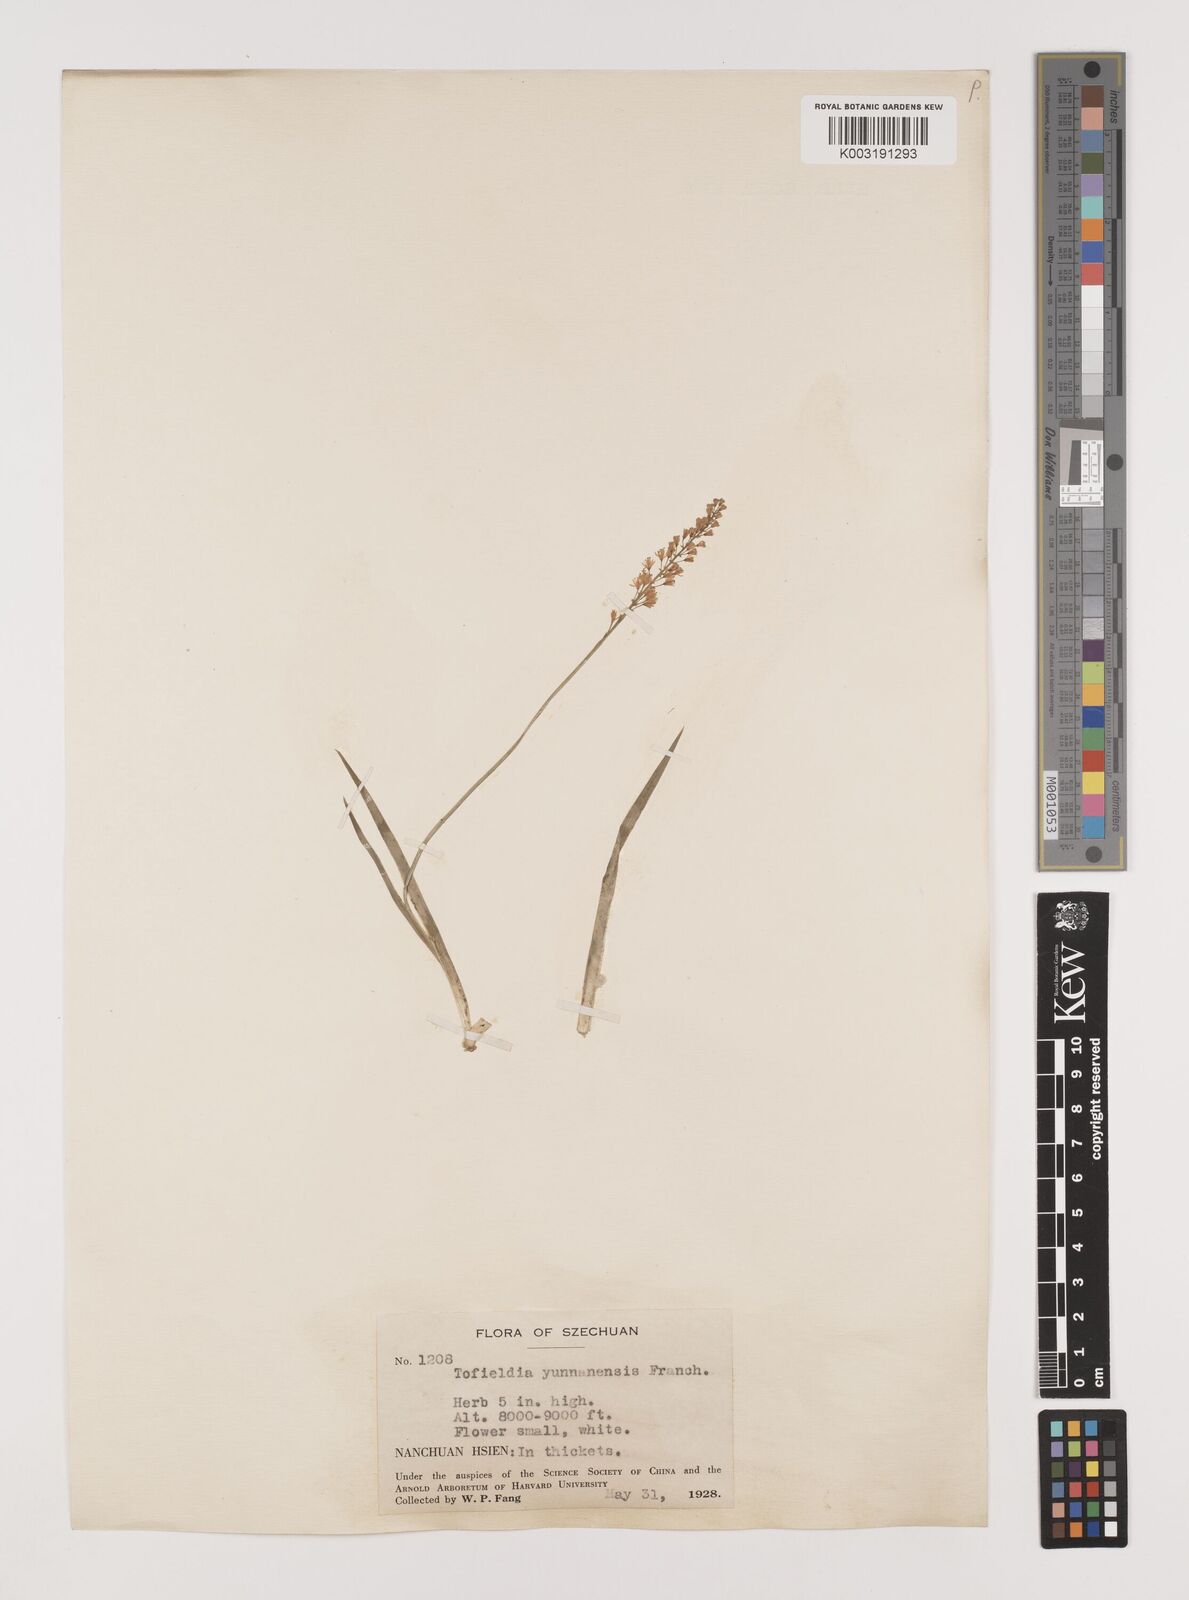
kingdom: Plantae
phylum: Tracheophyta
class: Liliopsida
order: Alismatales
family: Tofieldiaceae
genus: Tofieldia
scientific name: Tofieldia thibetica
